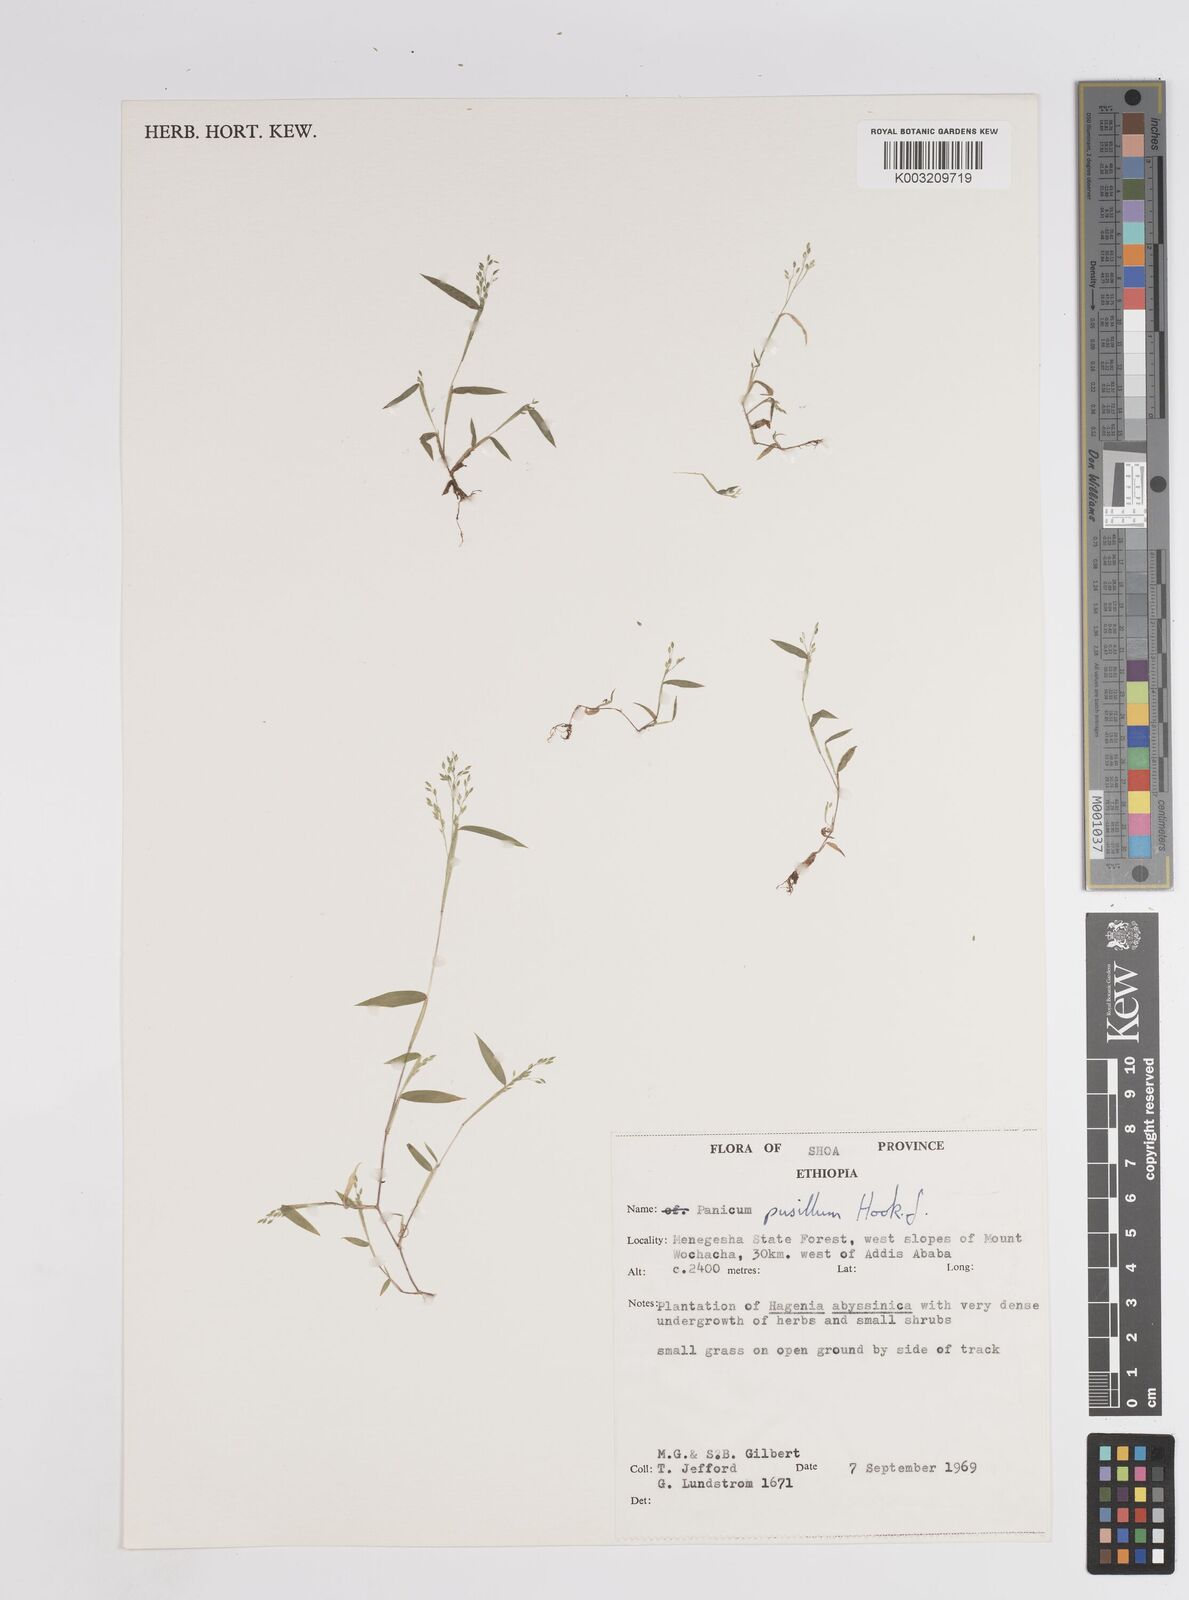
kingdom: Plantae
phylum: Tracheophyta
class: Liliopsida
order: Poales
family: Poaceae
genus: Panicum
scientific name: Panicum pusillum
